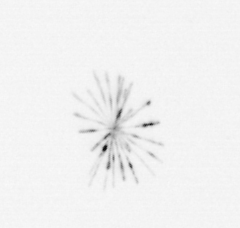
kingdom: Chromista
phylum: Ochrophyta
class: Bacillariophyceae
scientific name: Bacillariophyceae
